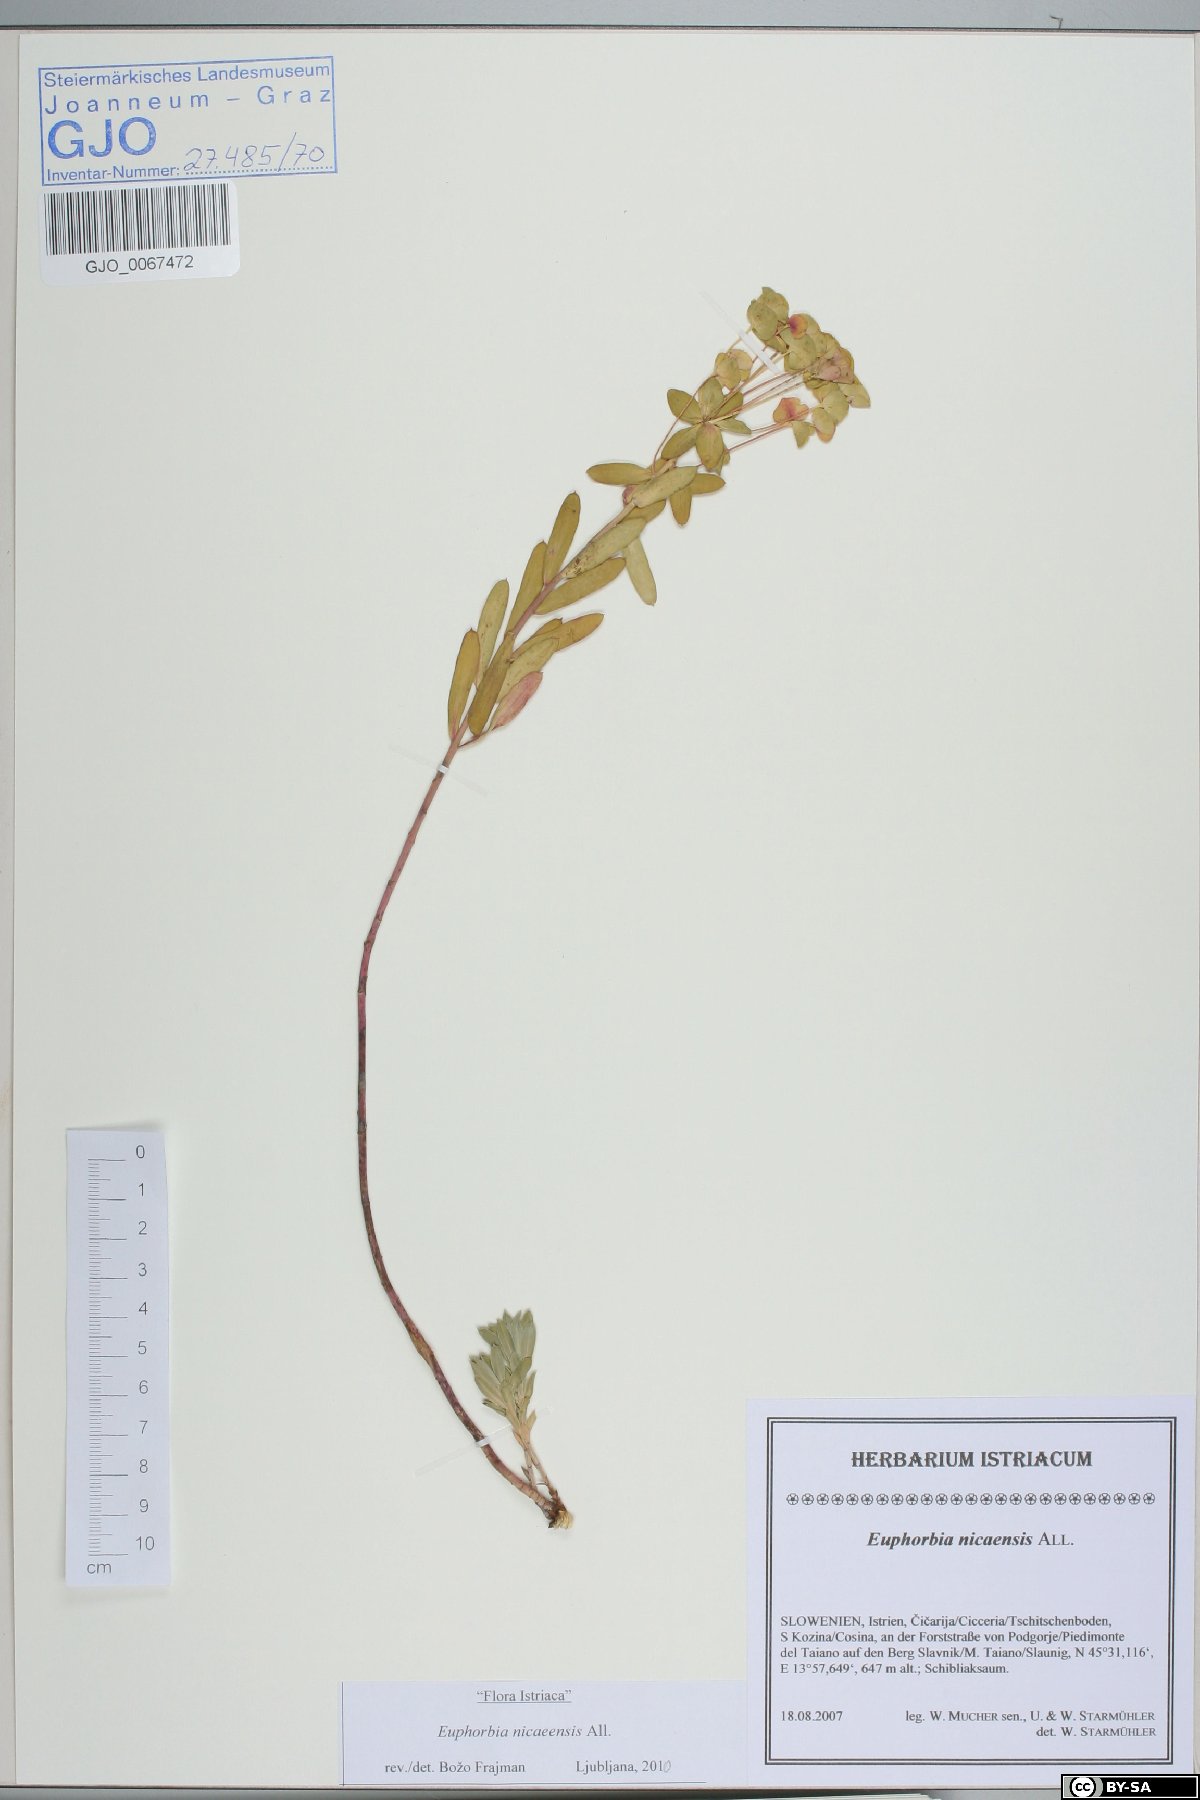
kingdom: Plantae
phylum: Tracheophyta
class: Magnoliopsida
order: Malpighiales
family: Euphorbiaceae
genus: Euphorbia
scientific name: Euphorbia nicaeensis
